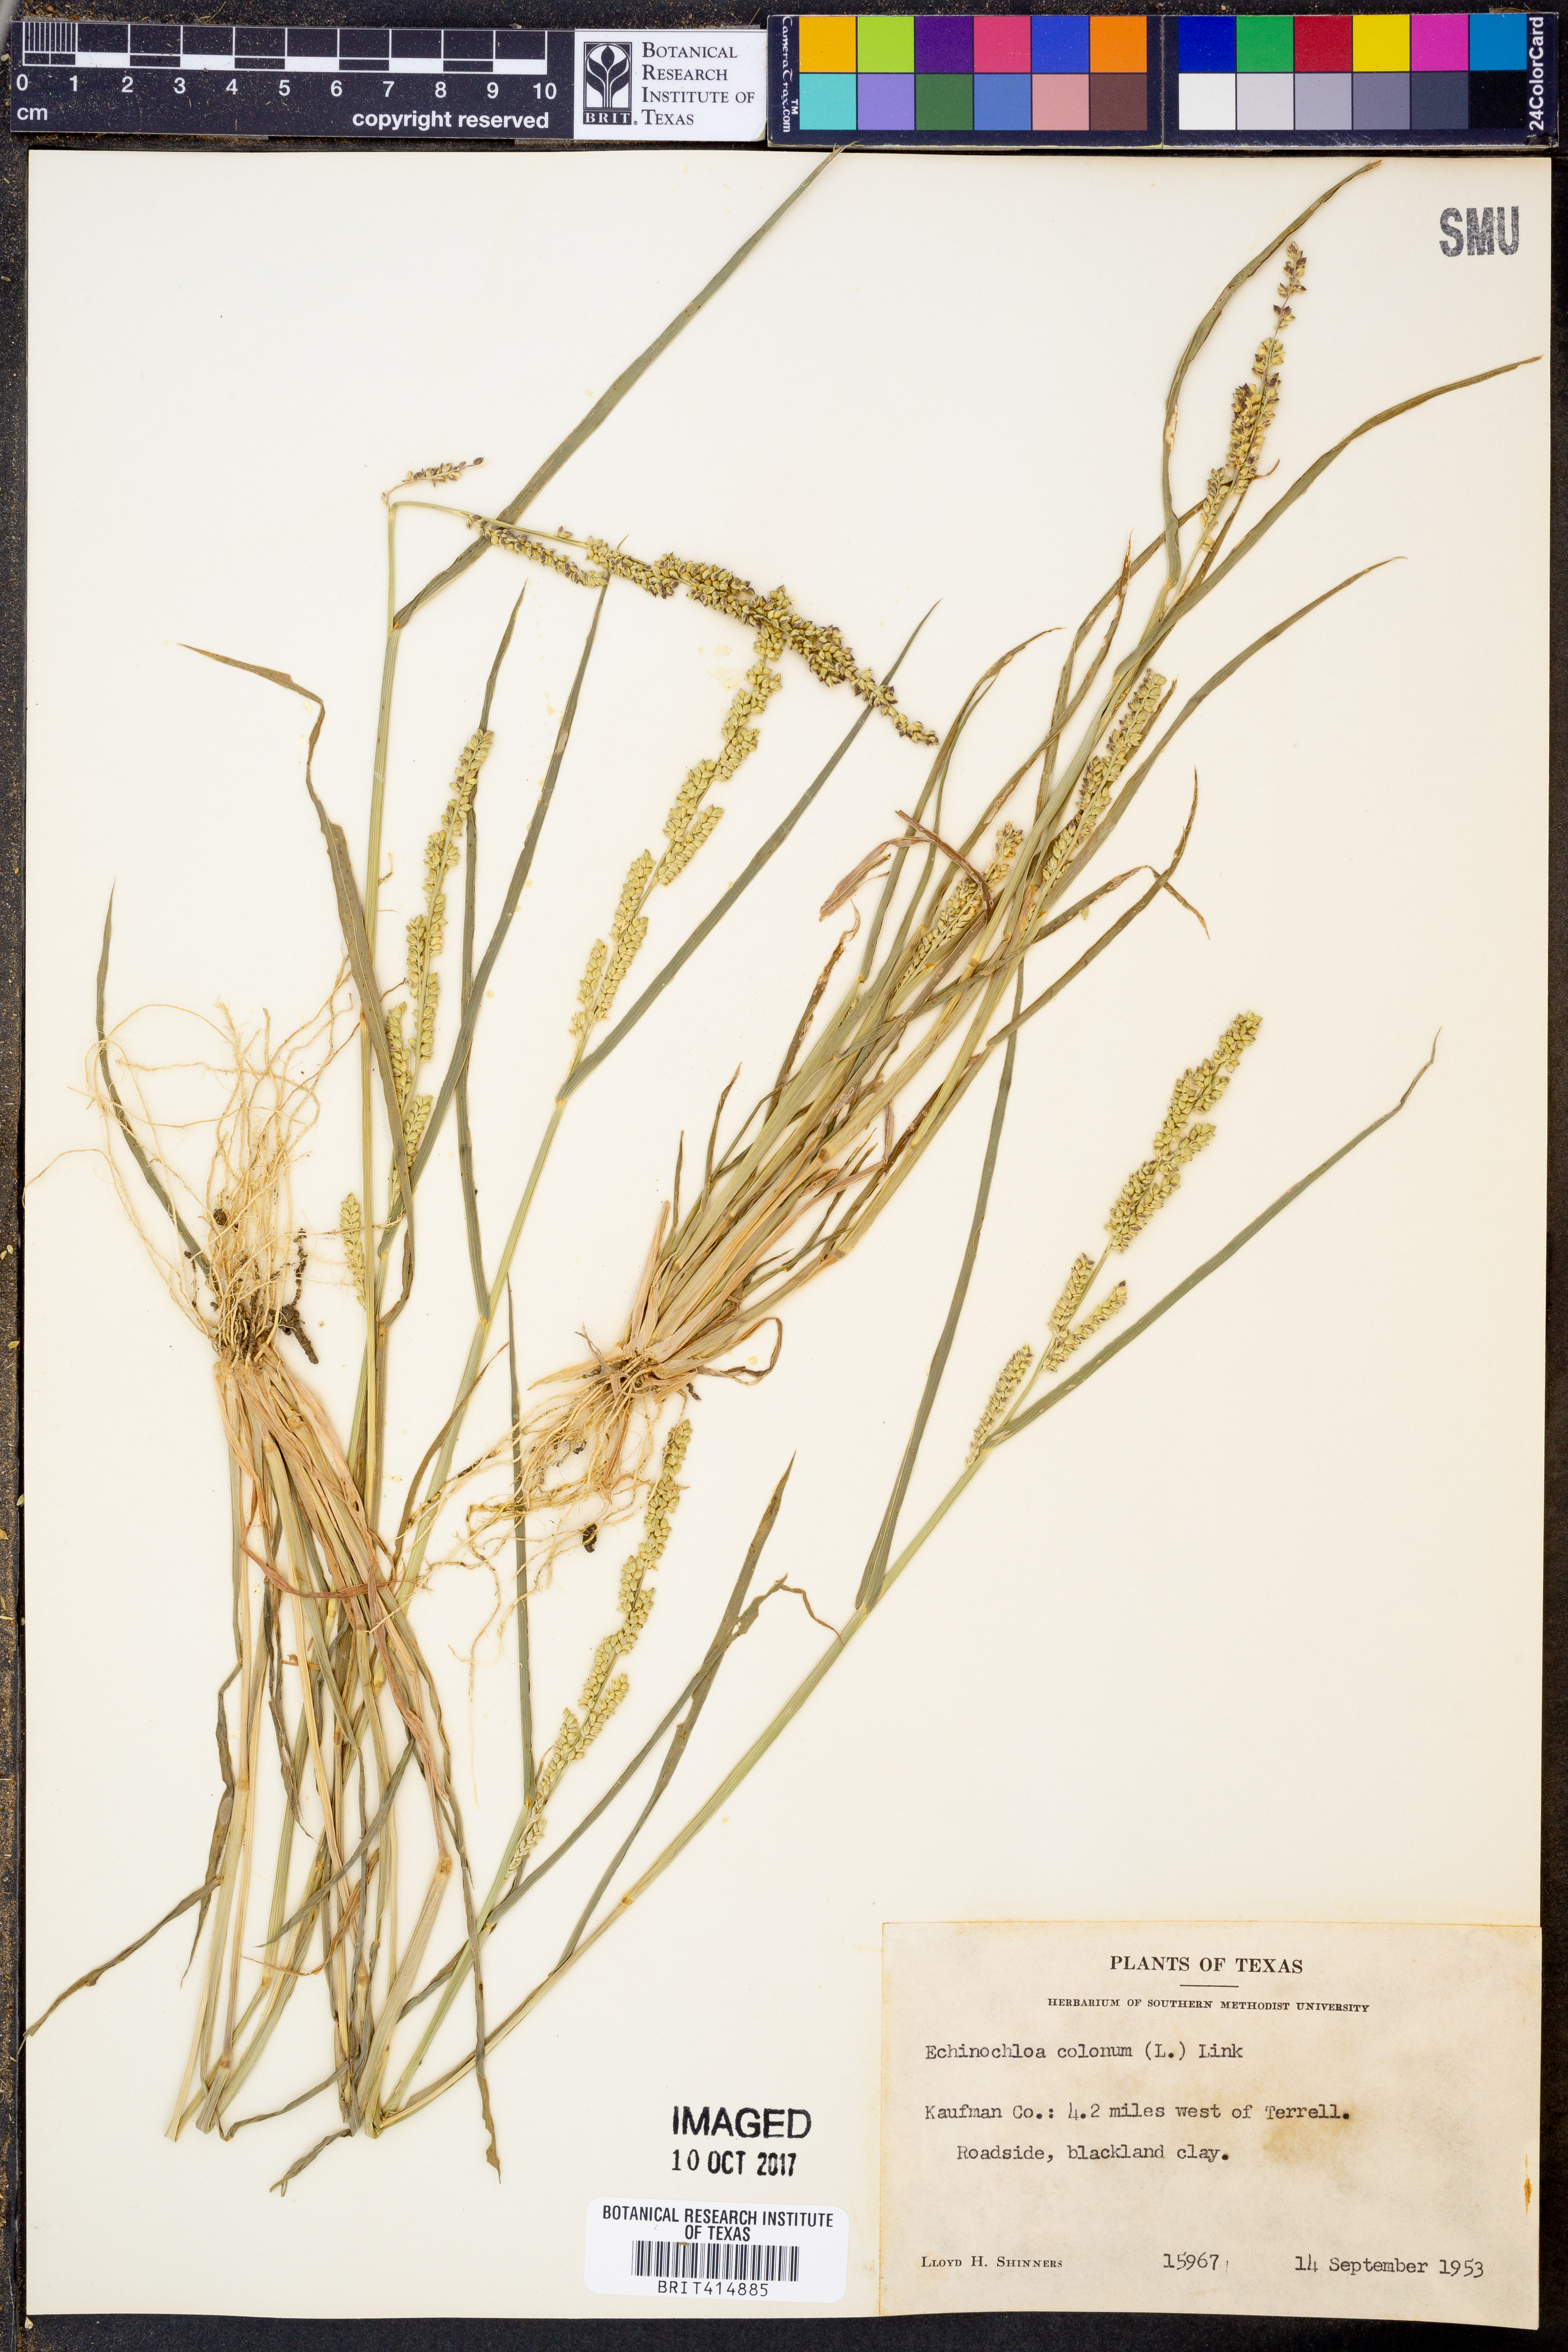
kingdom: Plantae
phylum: Tracheophyta
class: Liliopsida
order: Poales
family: Poaceae
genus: Echinochloa
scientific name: Echinochloa colonum
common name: Jungle rice
